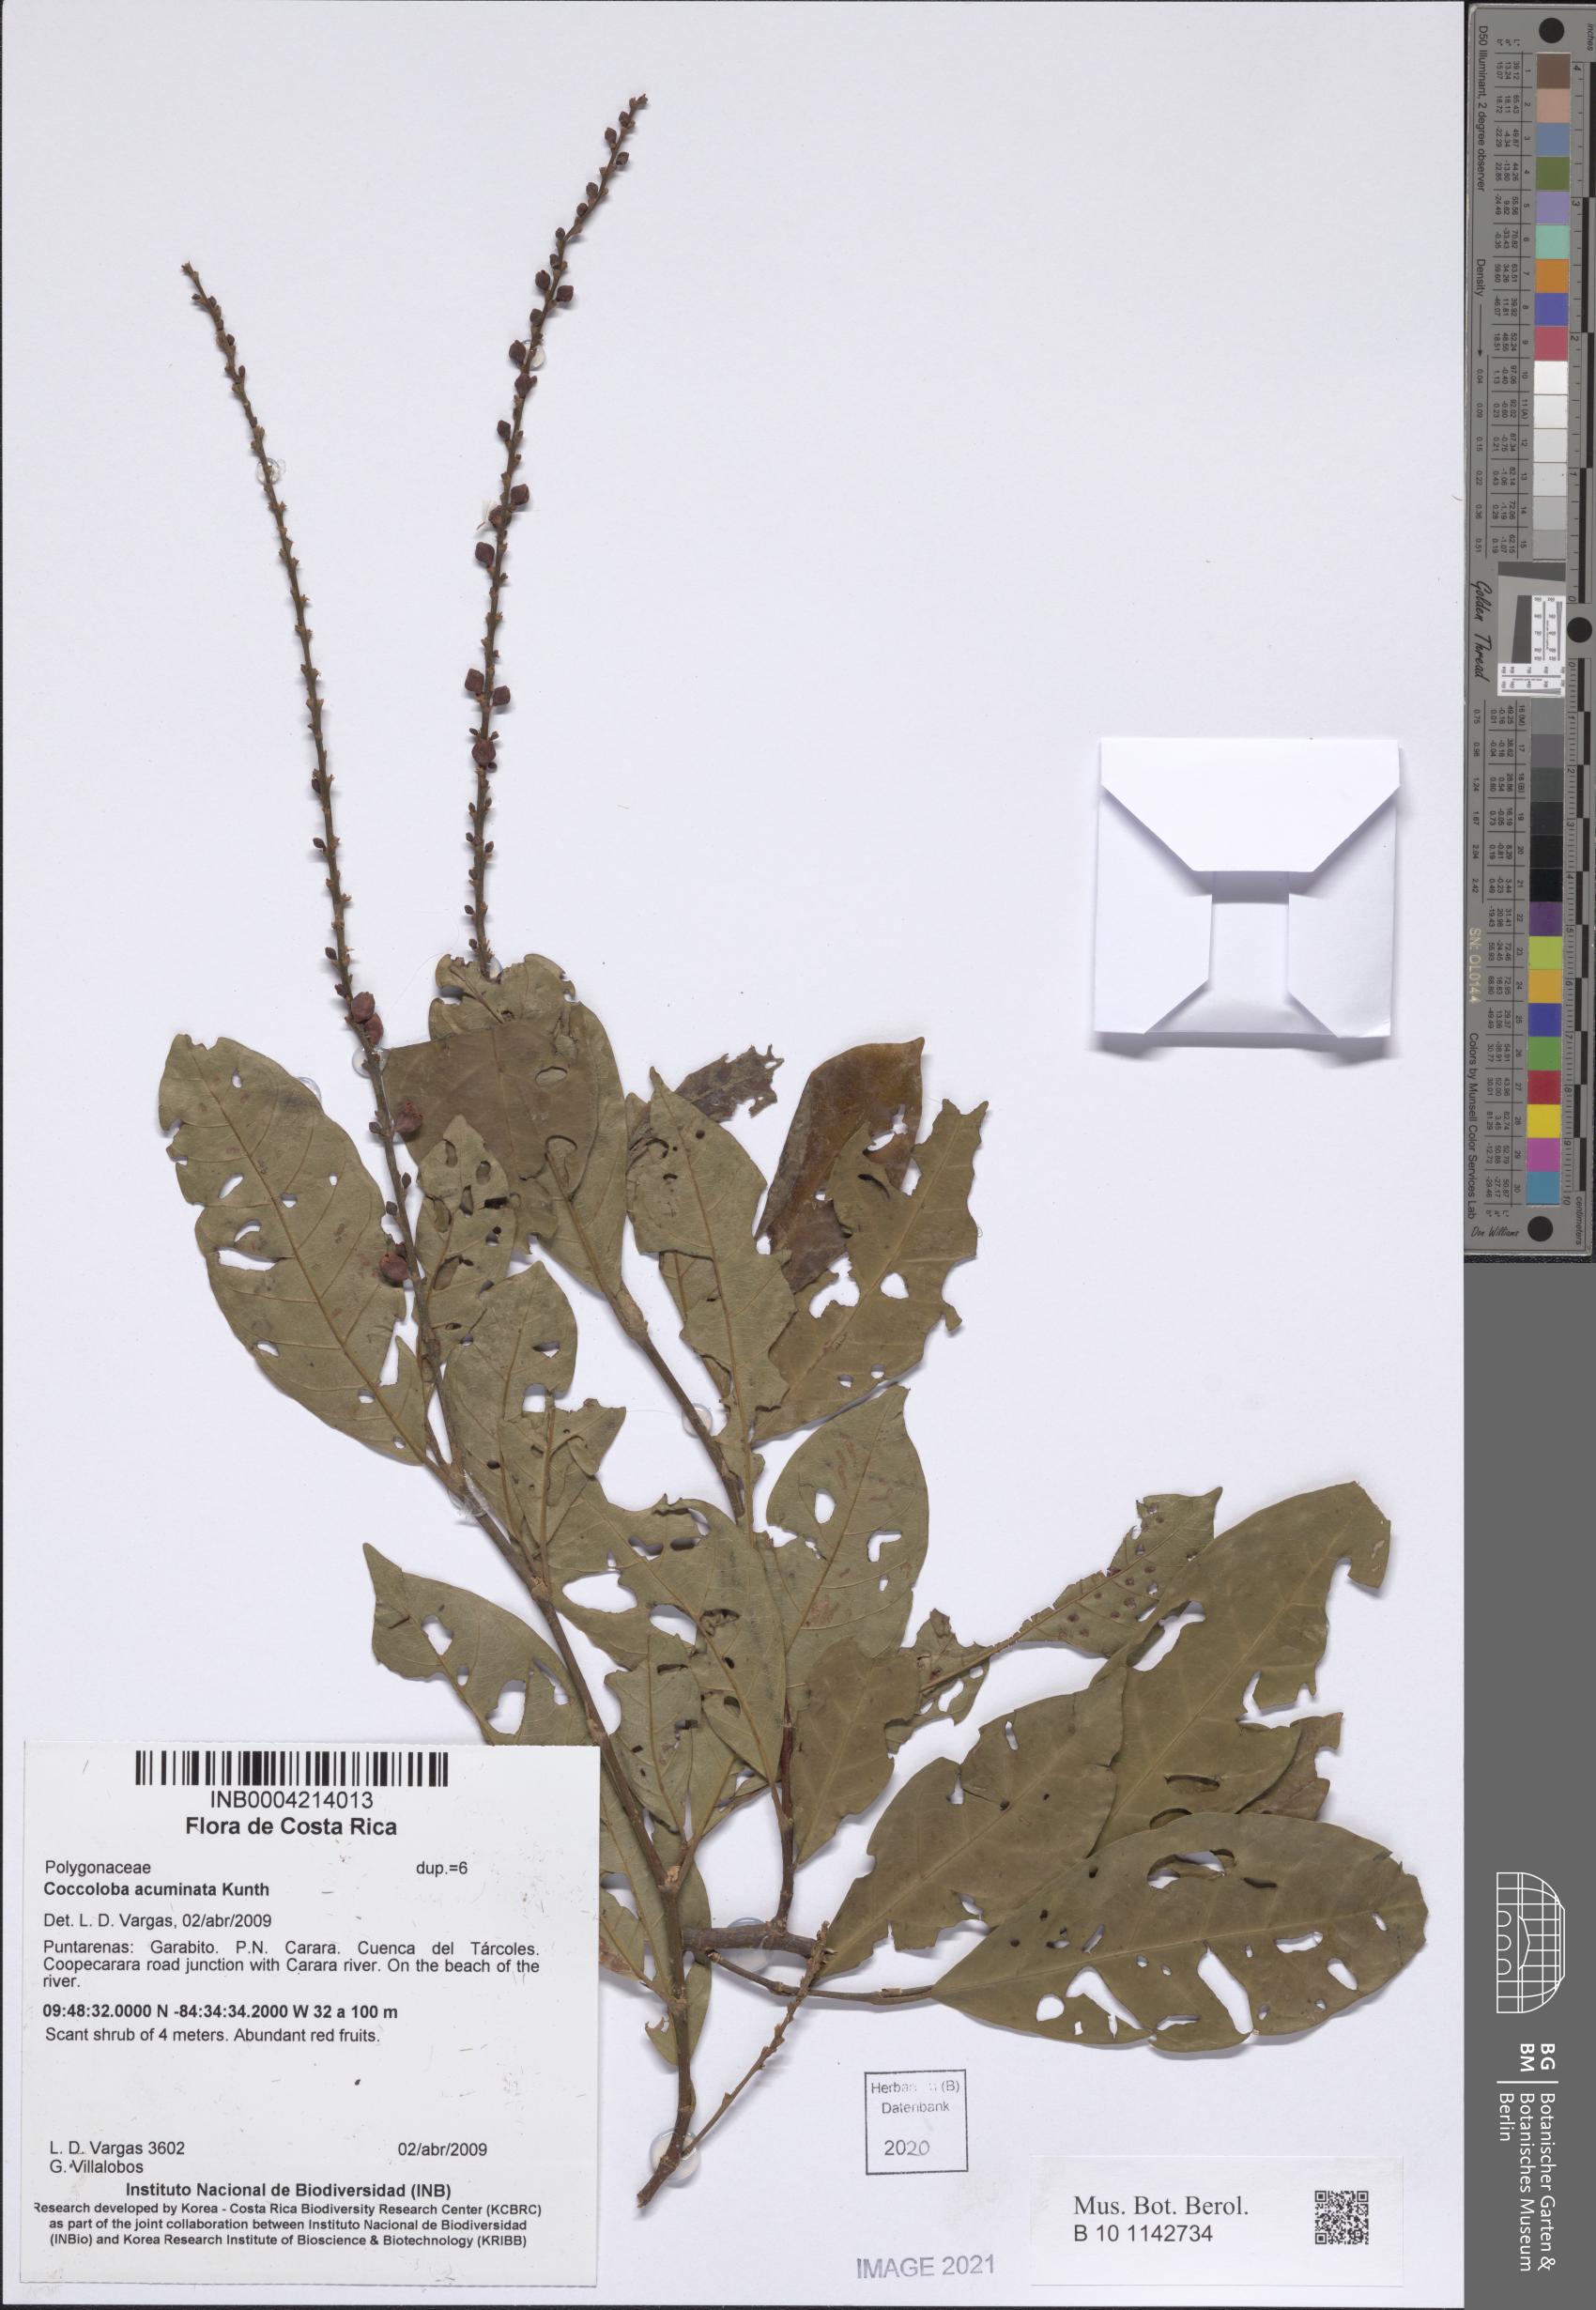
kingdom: Plantae
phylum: Tracheophyta
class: Magnoliopsida
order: Caryophyllales
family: Polygonaceae
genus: Coccoloba
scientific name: Coccoloba acuminata
